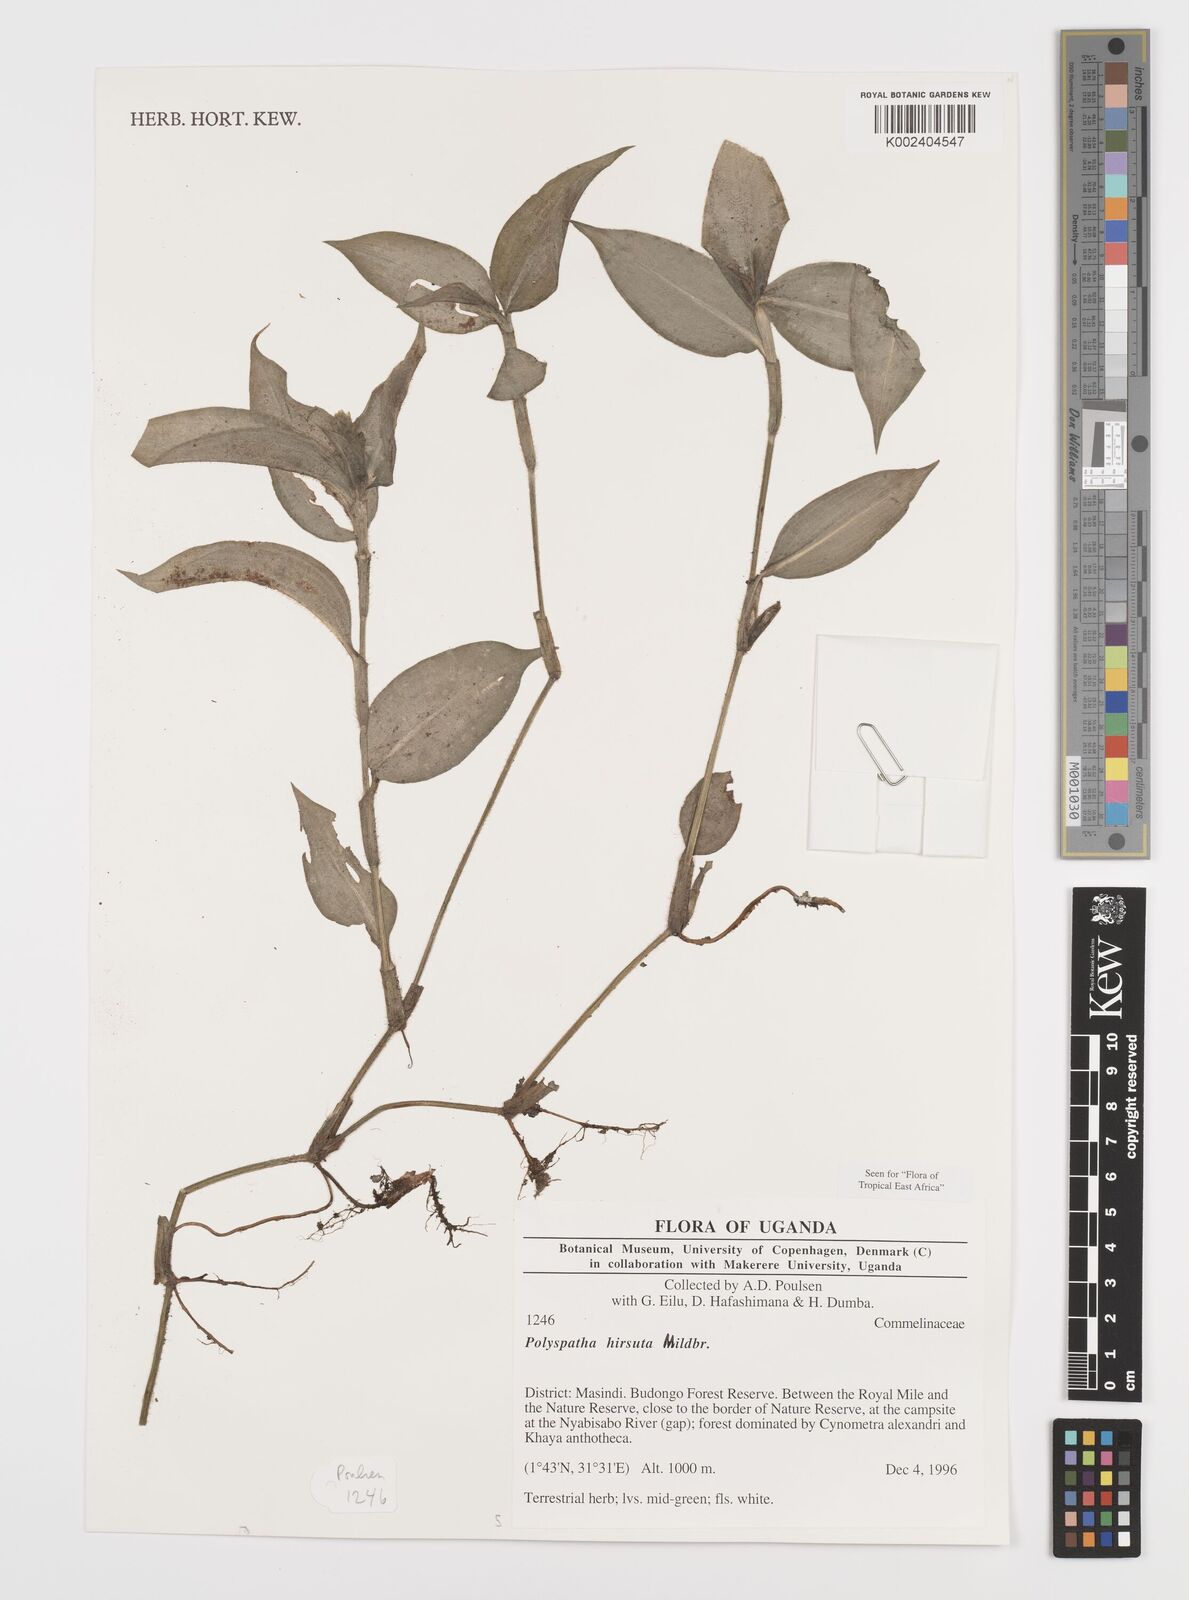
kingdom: Plantae
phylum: Tracheophyta
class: Liliopsida
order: Commelinales
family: Commelinaceae
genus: Polyspatha
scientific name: Polyspatha hirsuta
